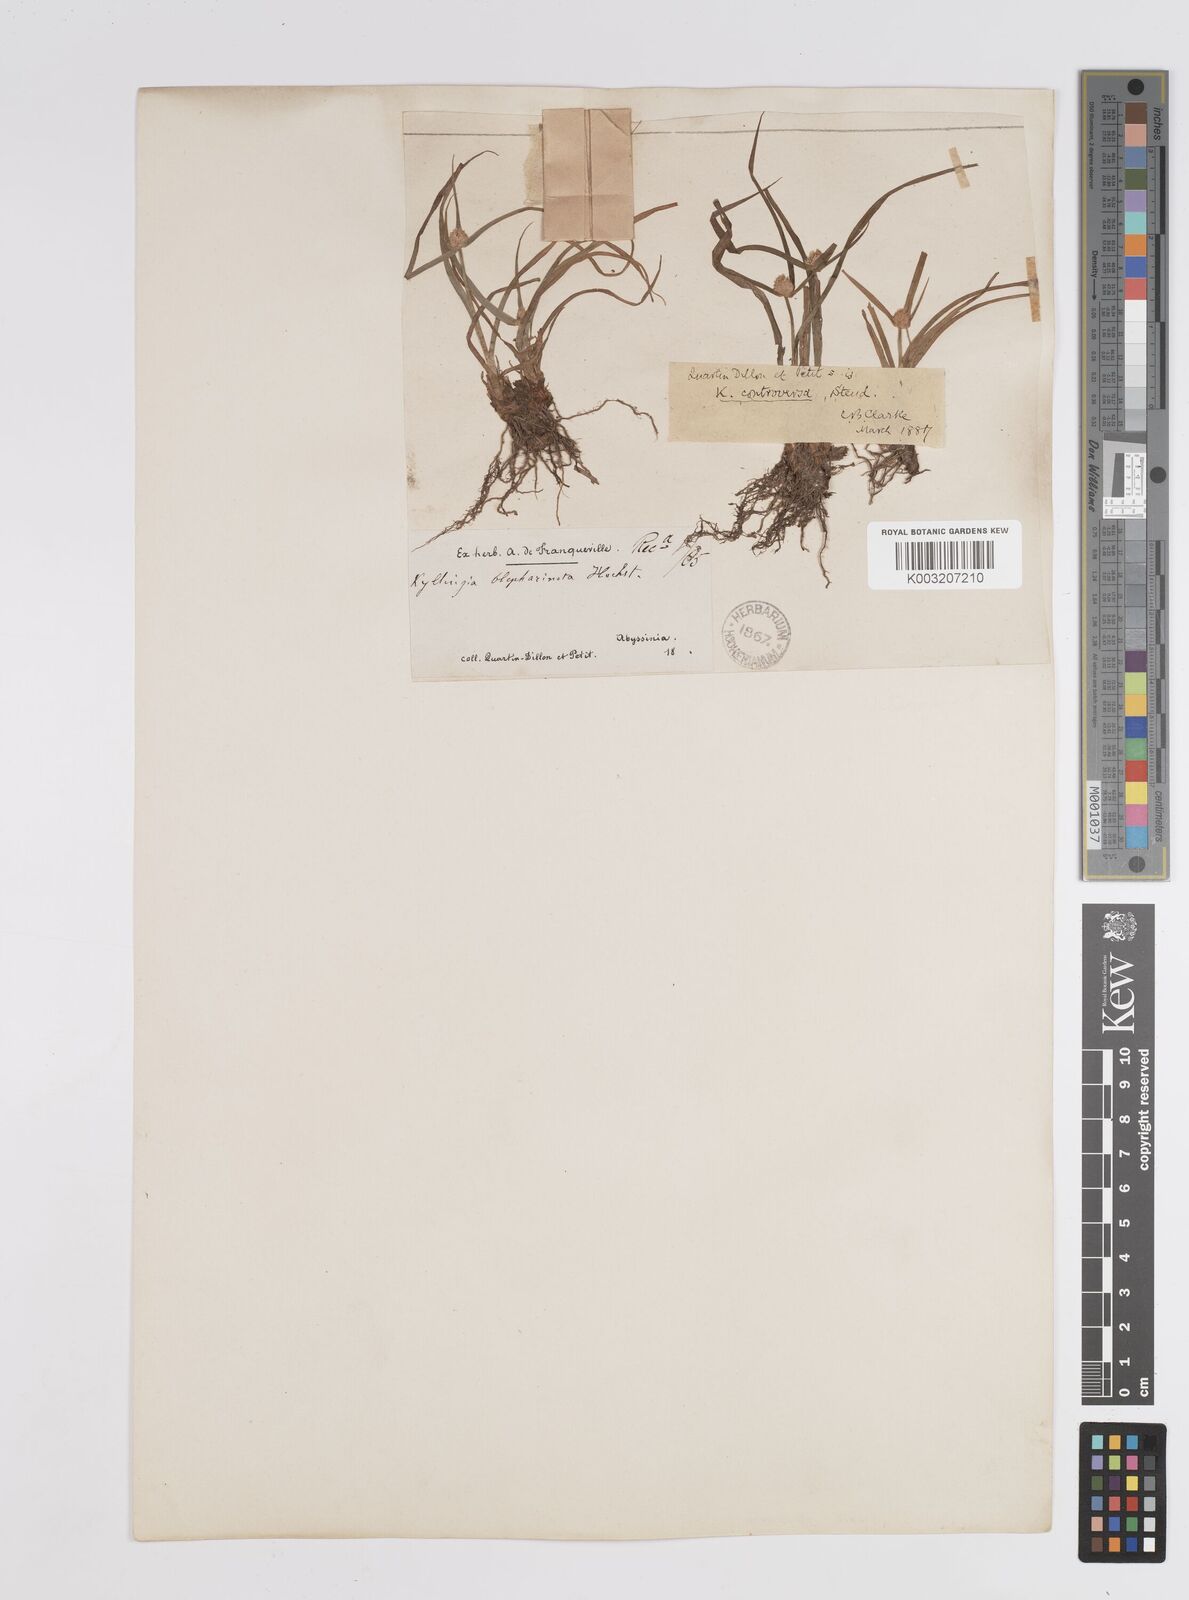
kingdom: Plantae
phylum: Tracheophyta
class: Liliopsida
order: Poales
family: Cyperaceae
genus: Cyperus
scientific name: Cyperus controversus
